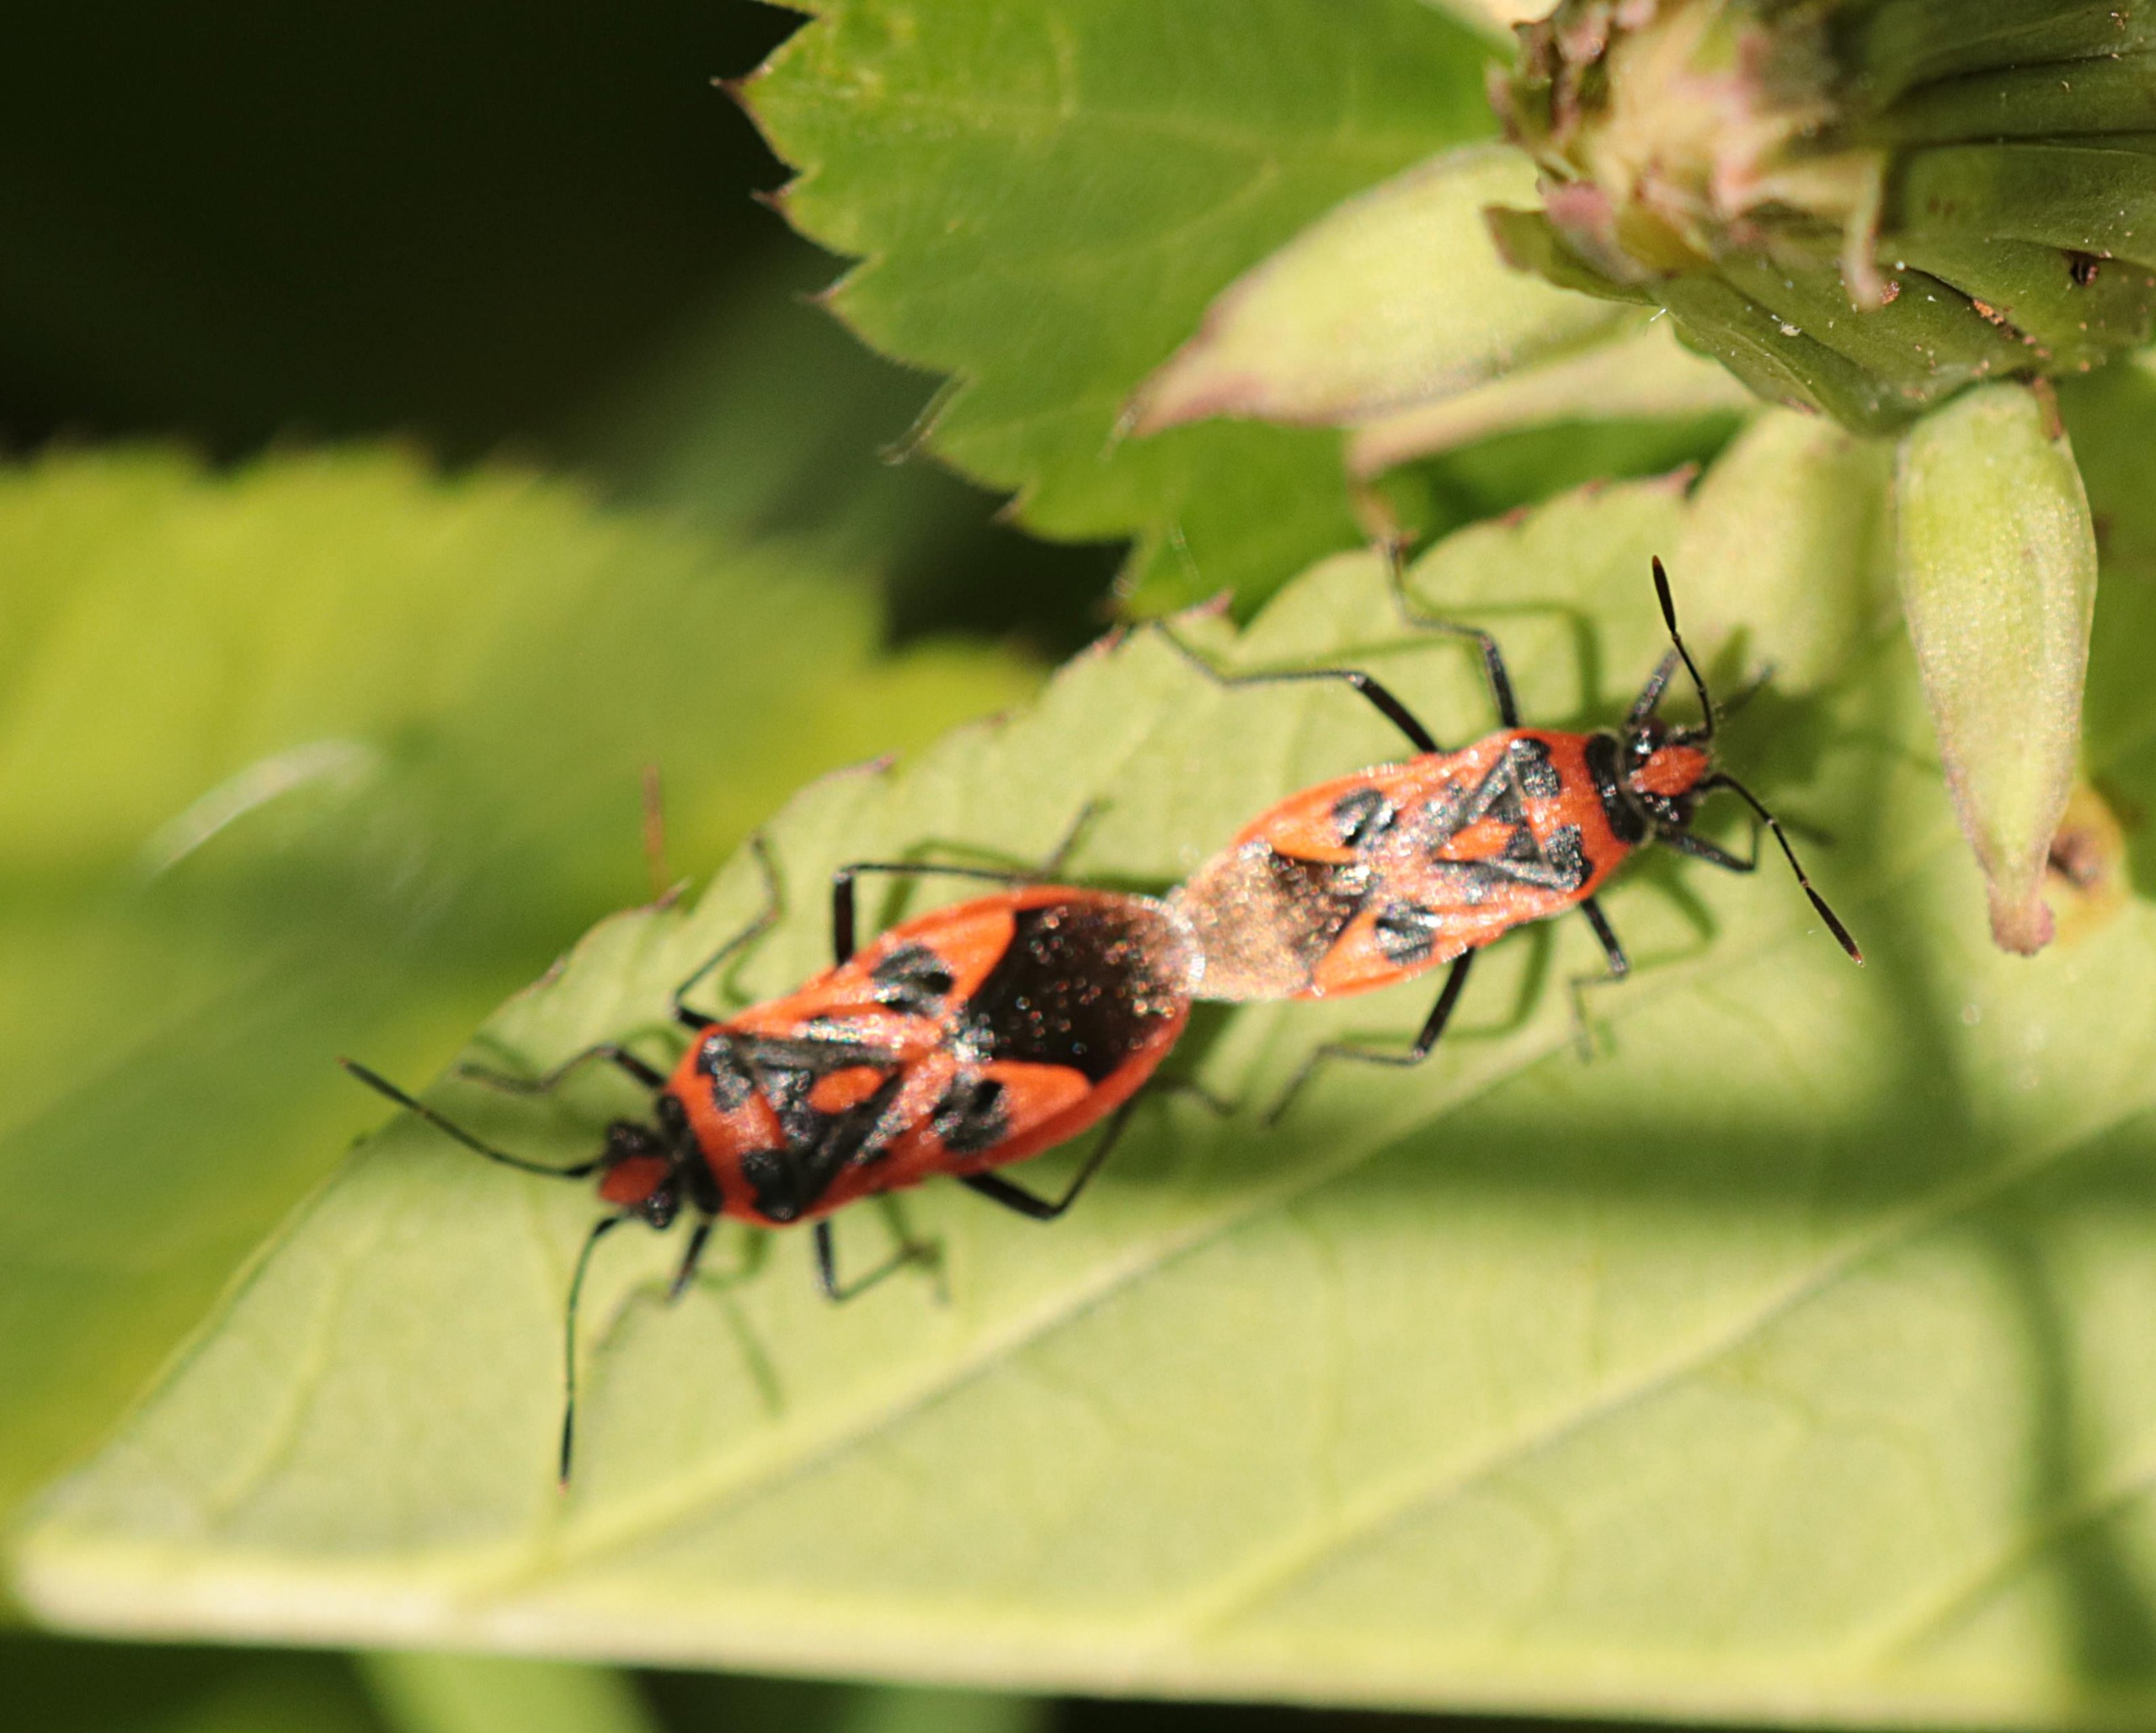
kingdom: Animalia
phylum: Arthropoda
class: Insecta
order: Hemiptera
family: Rhopalidae
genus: Corizus
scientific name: Corizus hyoscyami
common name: Rød kanttæge
